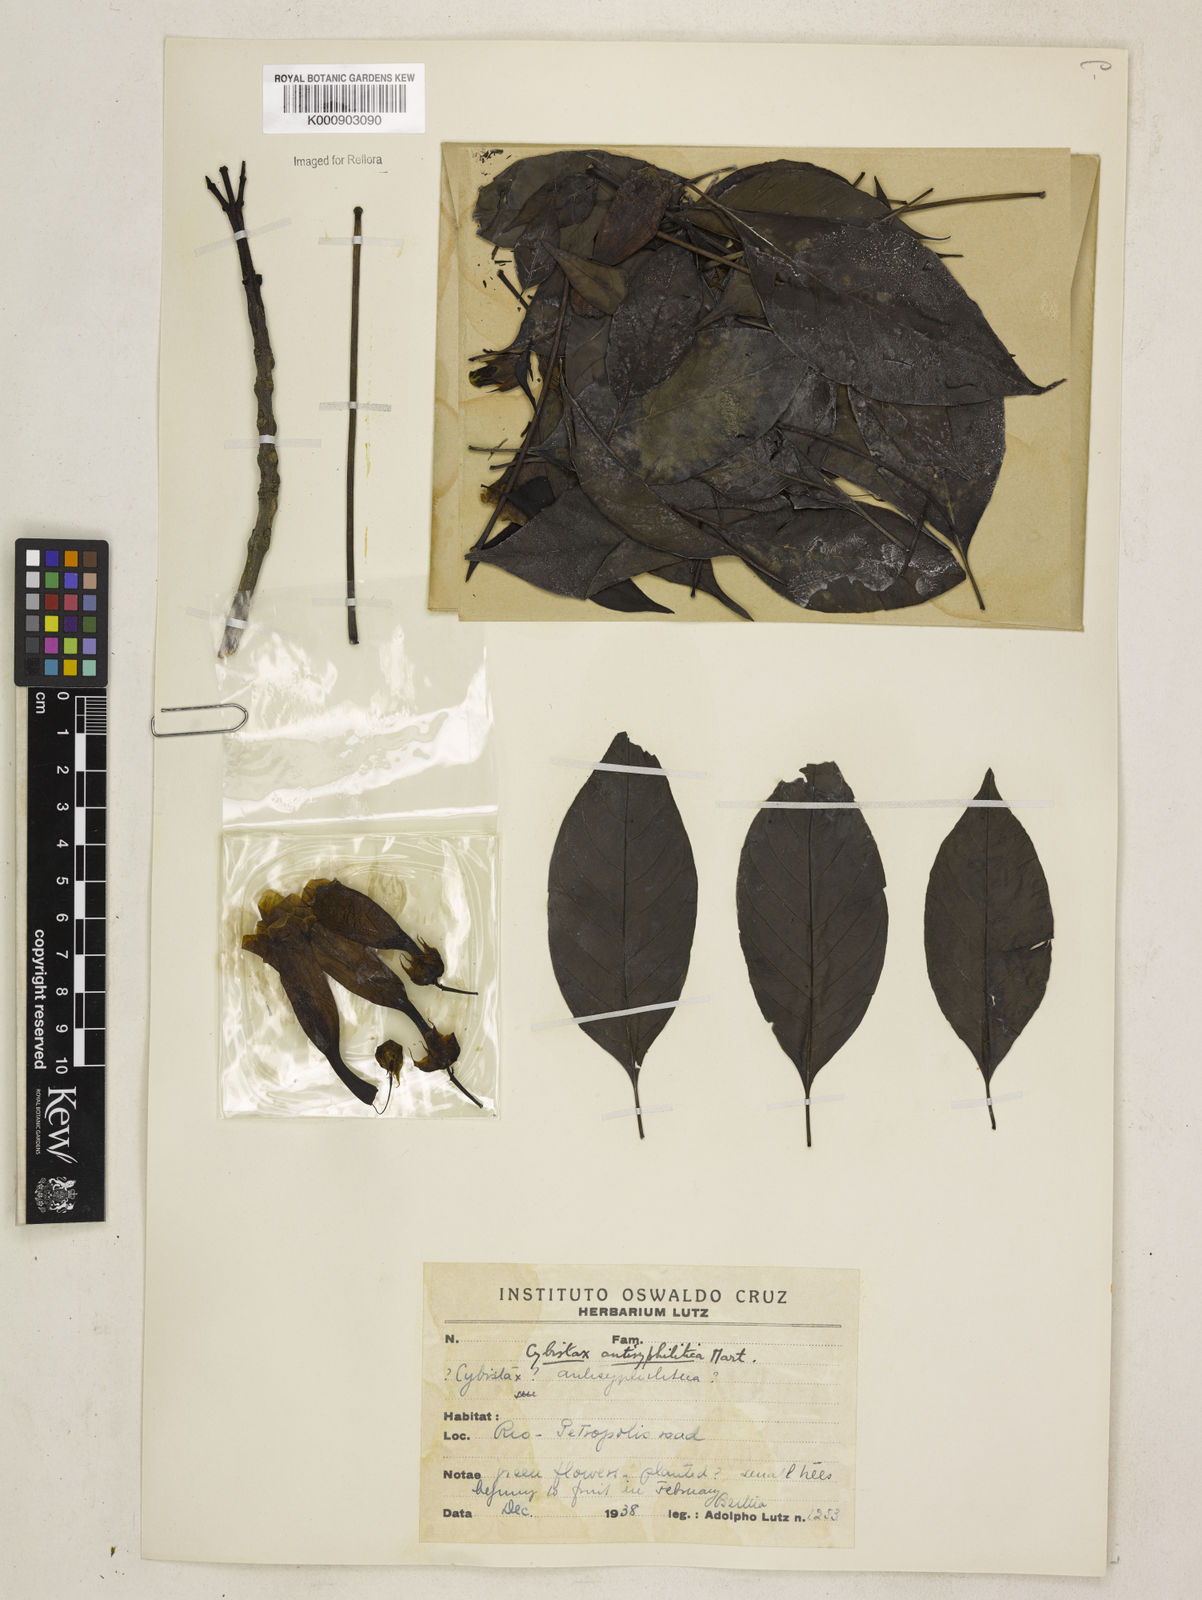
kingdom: Plantae
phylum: Tracheophyta
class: Magnoliopsida
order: Lamiales
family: Bignoniaceae
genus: Cybistax
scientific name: Cybistax antisyphilitica
